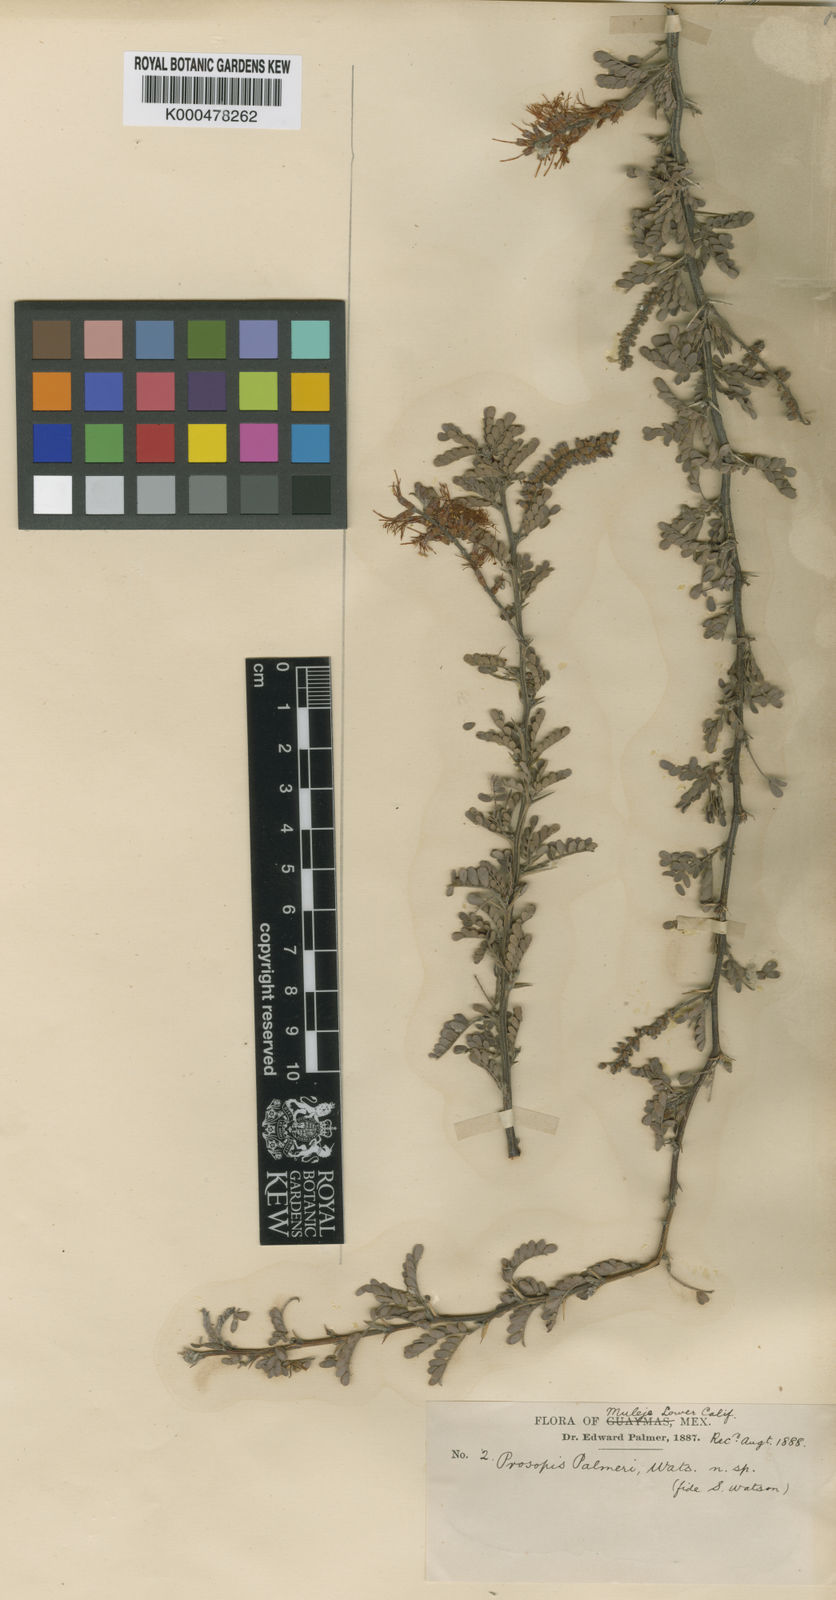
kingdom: Plantae
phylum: Tracheophyta
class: Magnoliopsida
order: Fabales
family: Fabaceae
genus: Prosopis
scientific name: Prosopis palmeri
